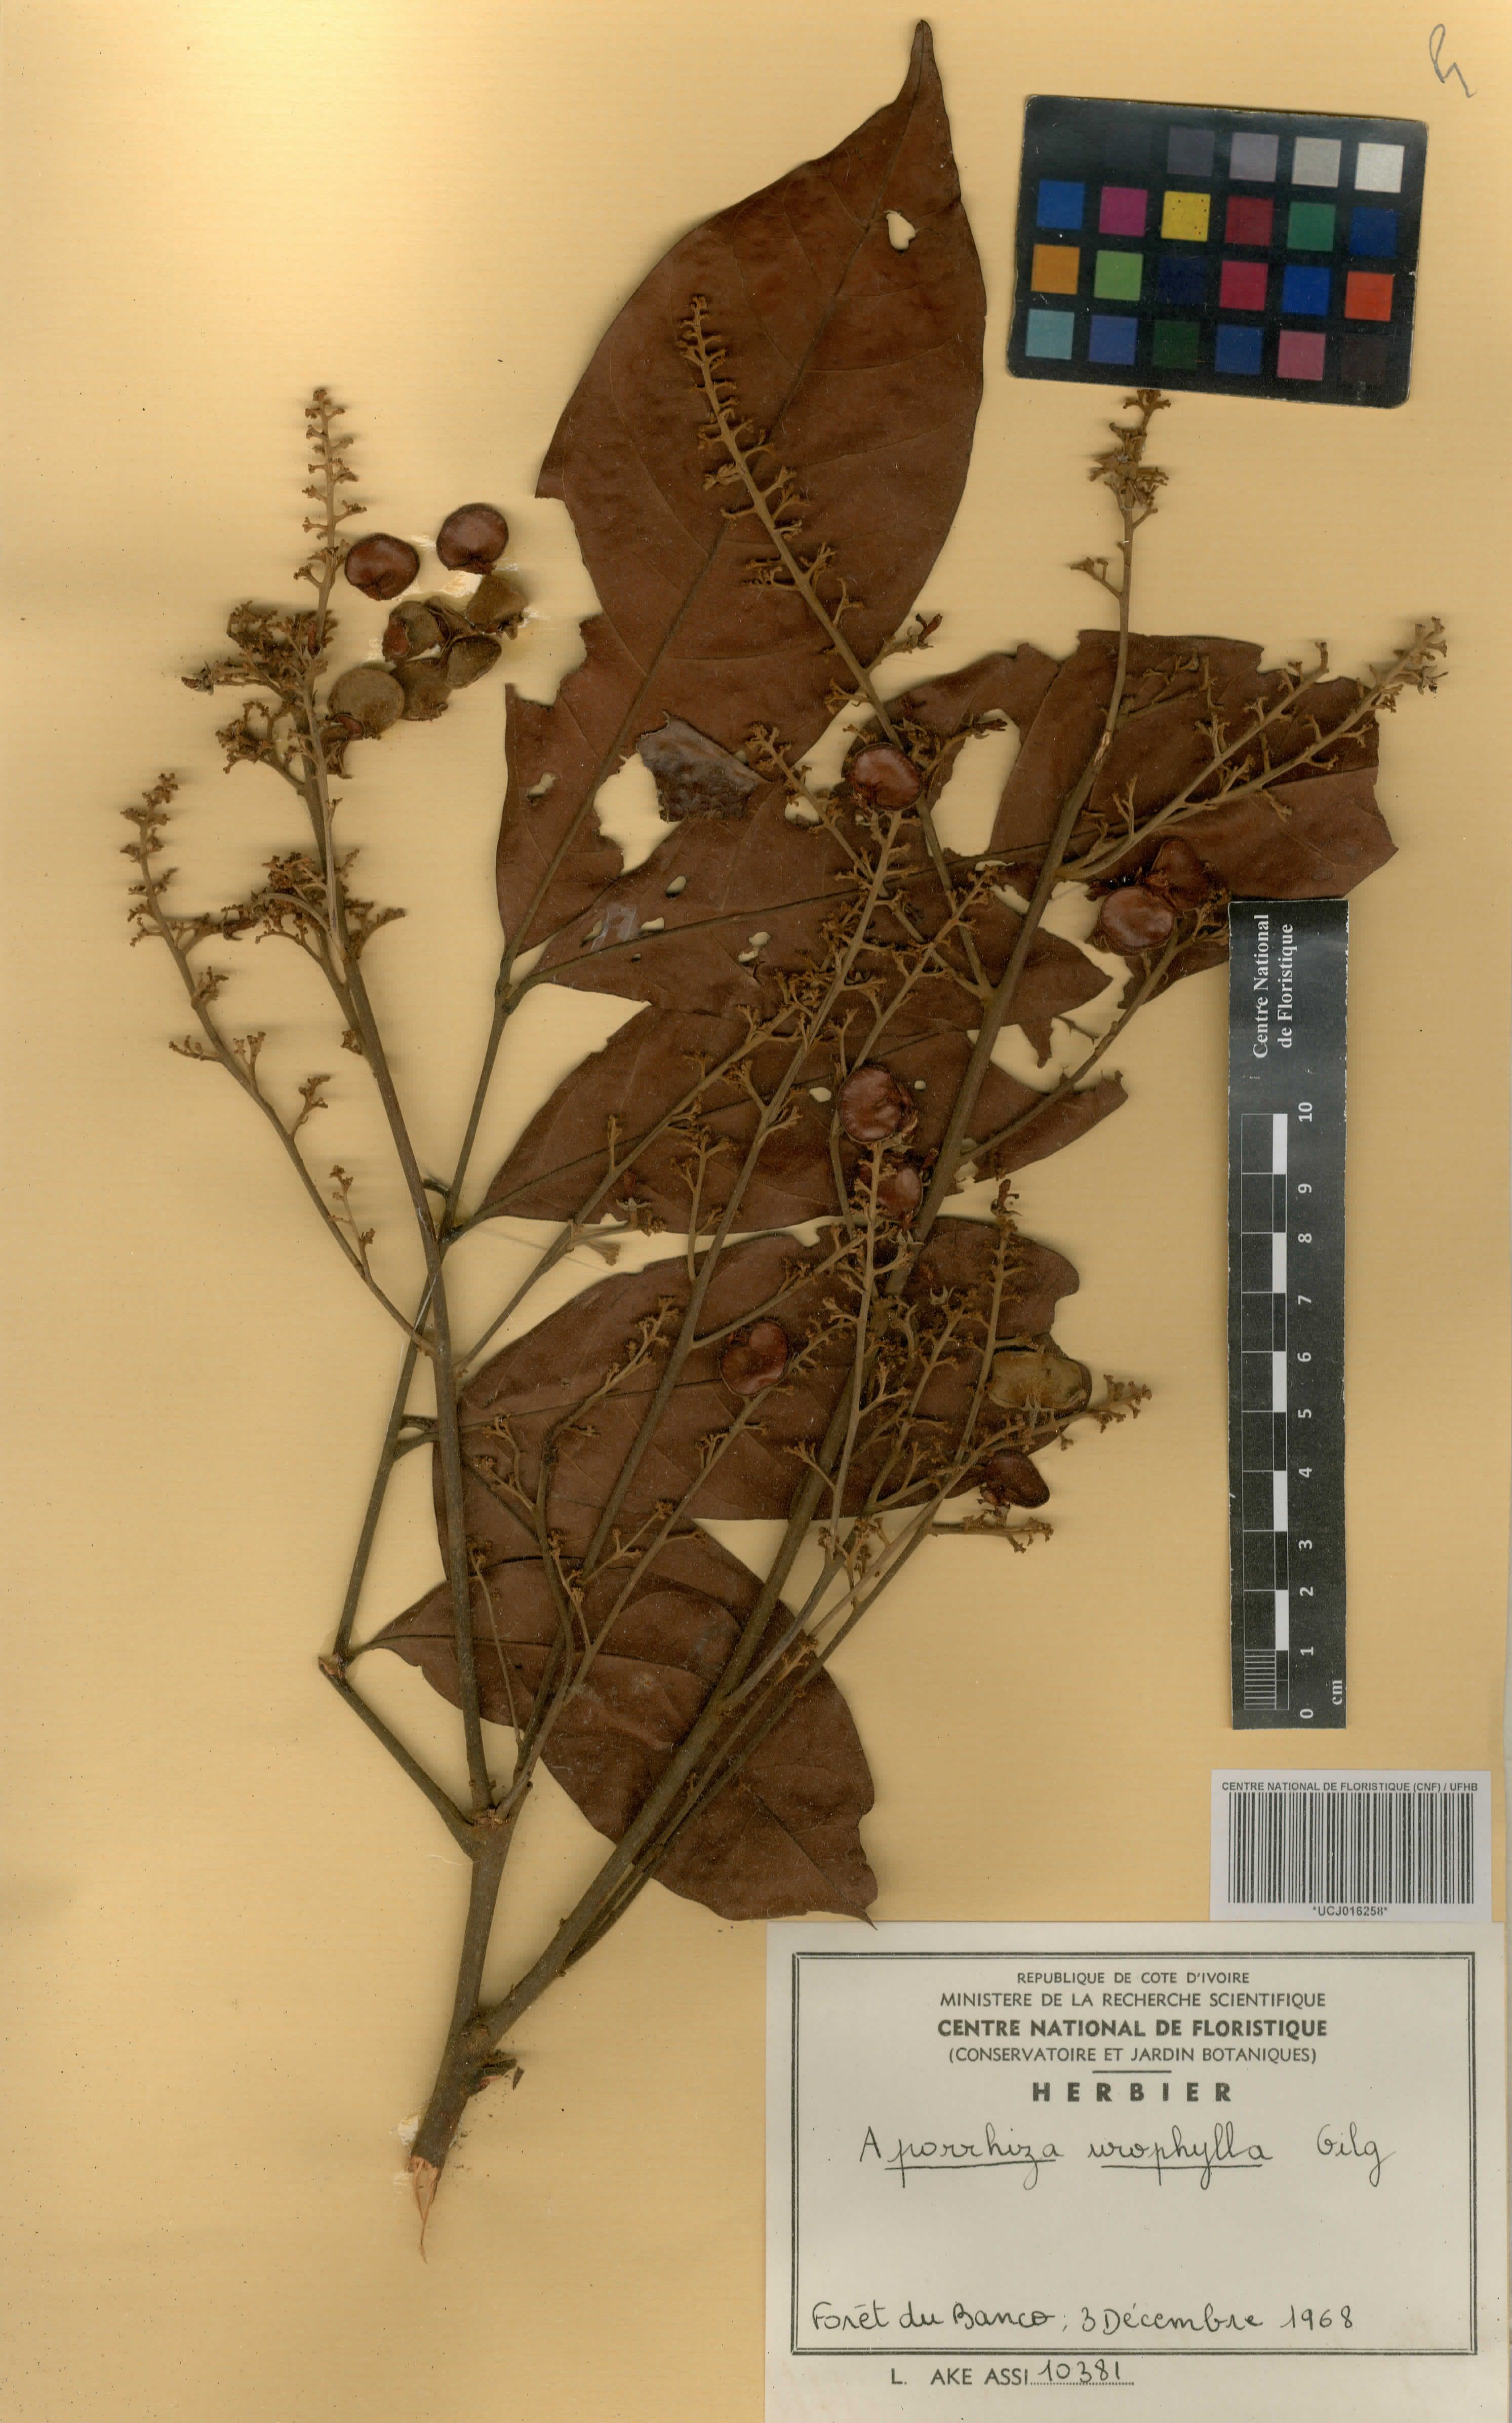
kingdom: Plantae
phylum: Tracheophyta
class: Magnoliopsida
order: Sapindales
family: Sapindaceae
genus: Aporrhiza
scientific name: Aporrhiza urophylla
